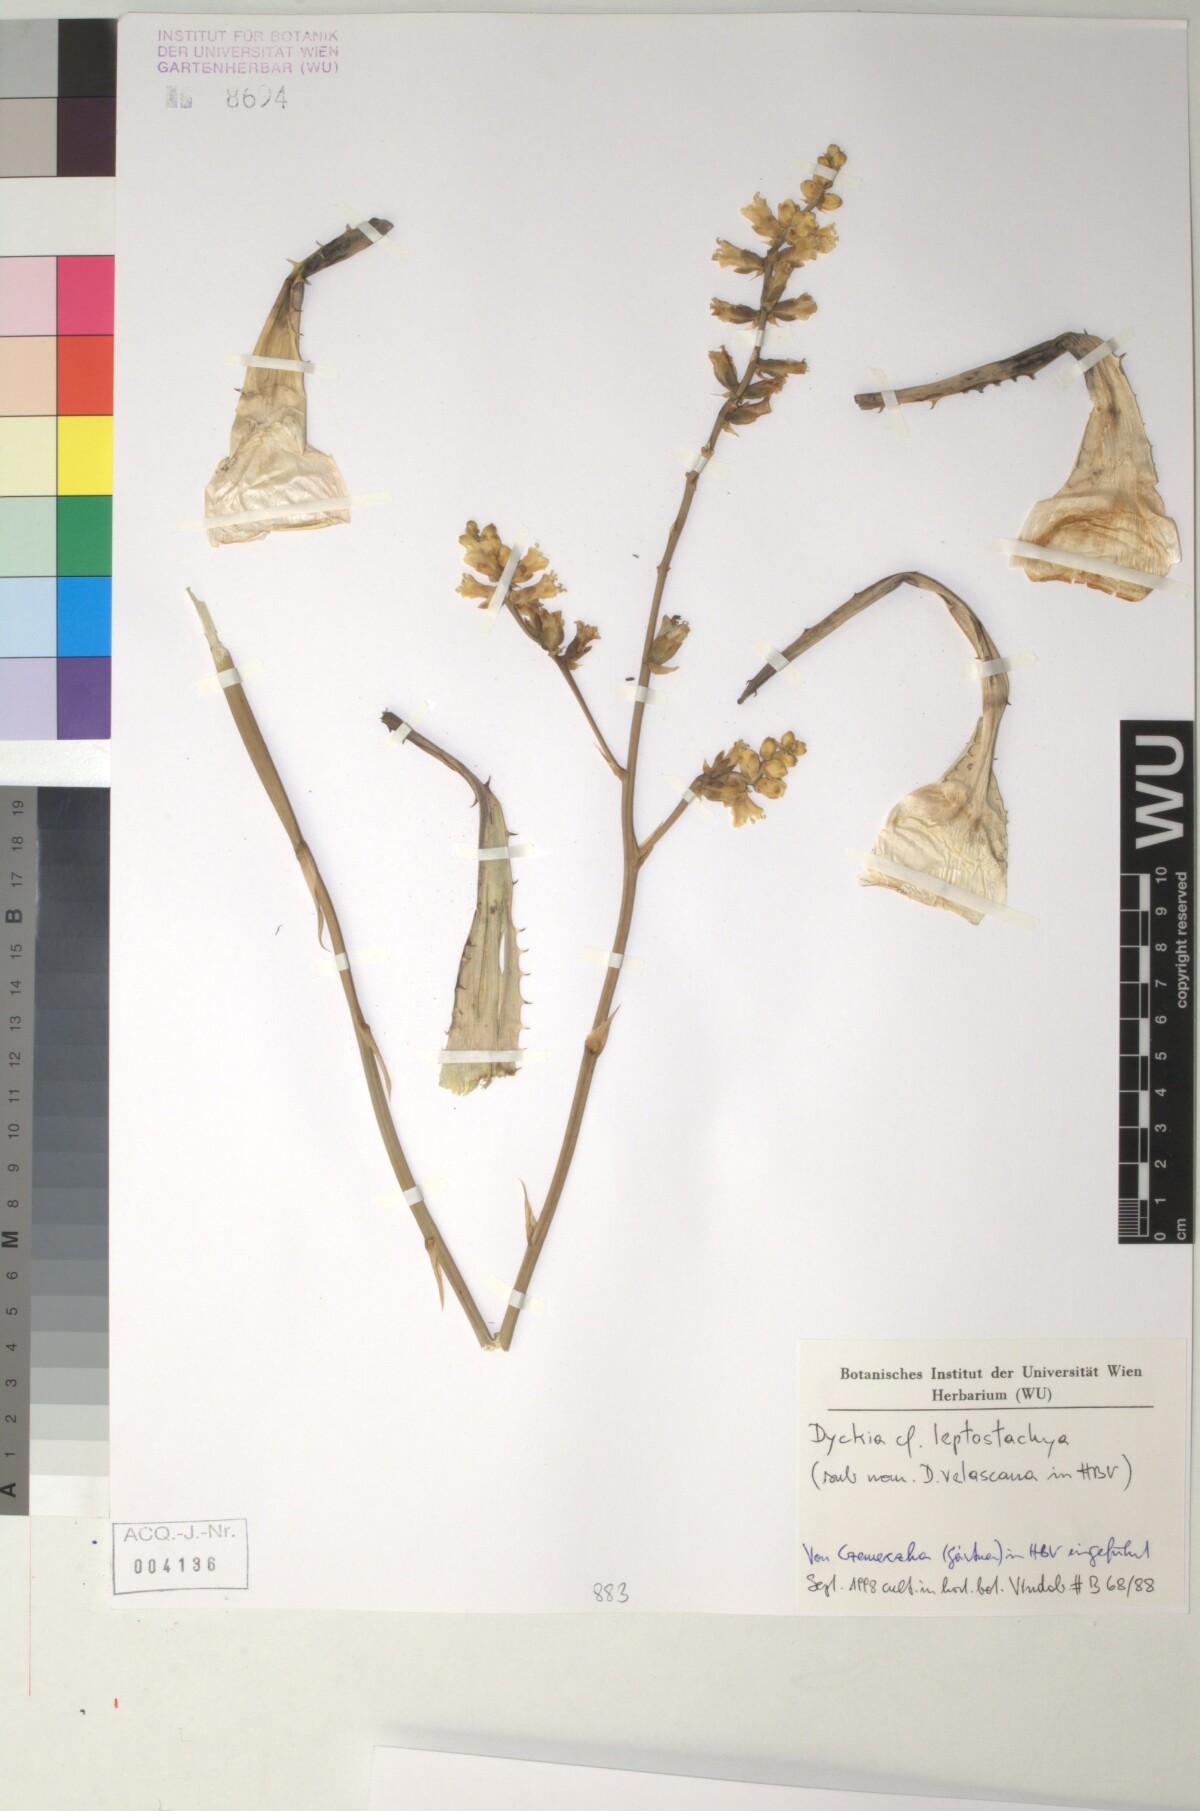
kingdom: Plantae
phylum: Tracheophyta
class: Liliopsida
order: Poales
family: Bromeliaceae
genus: Dyckia
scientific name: Dyckia leptostachya
